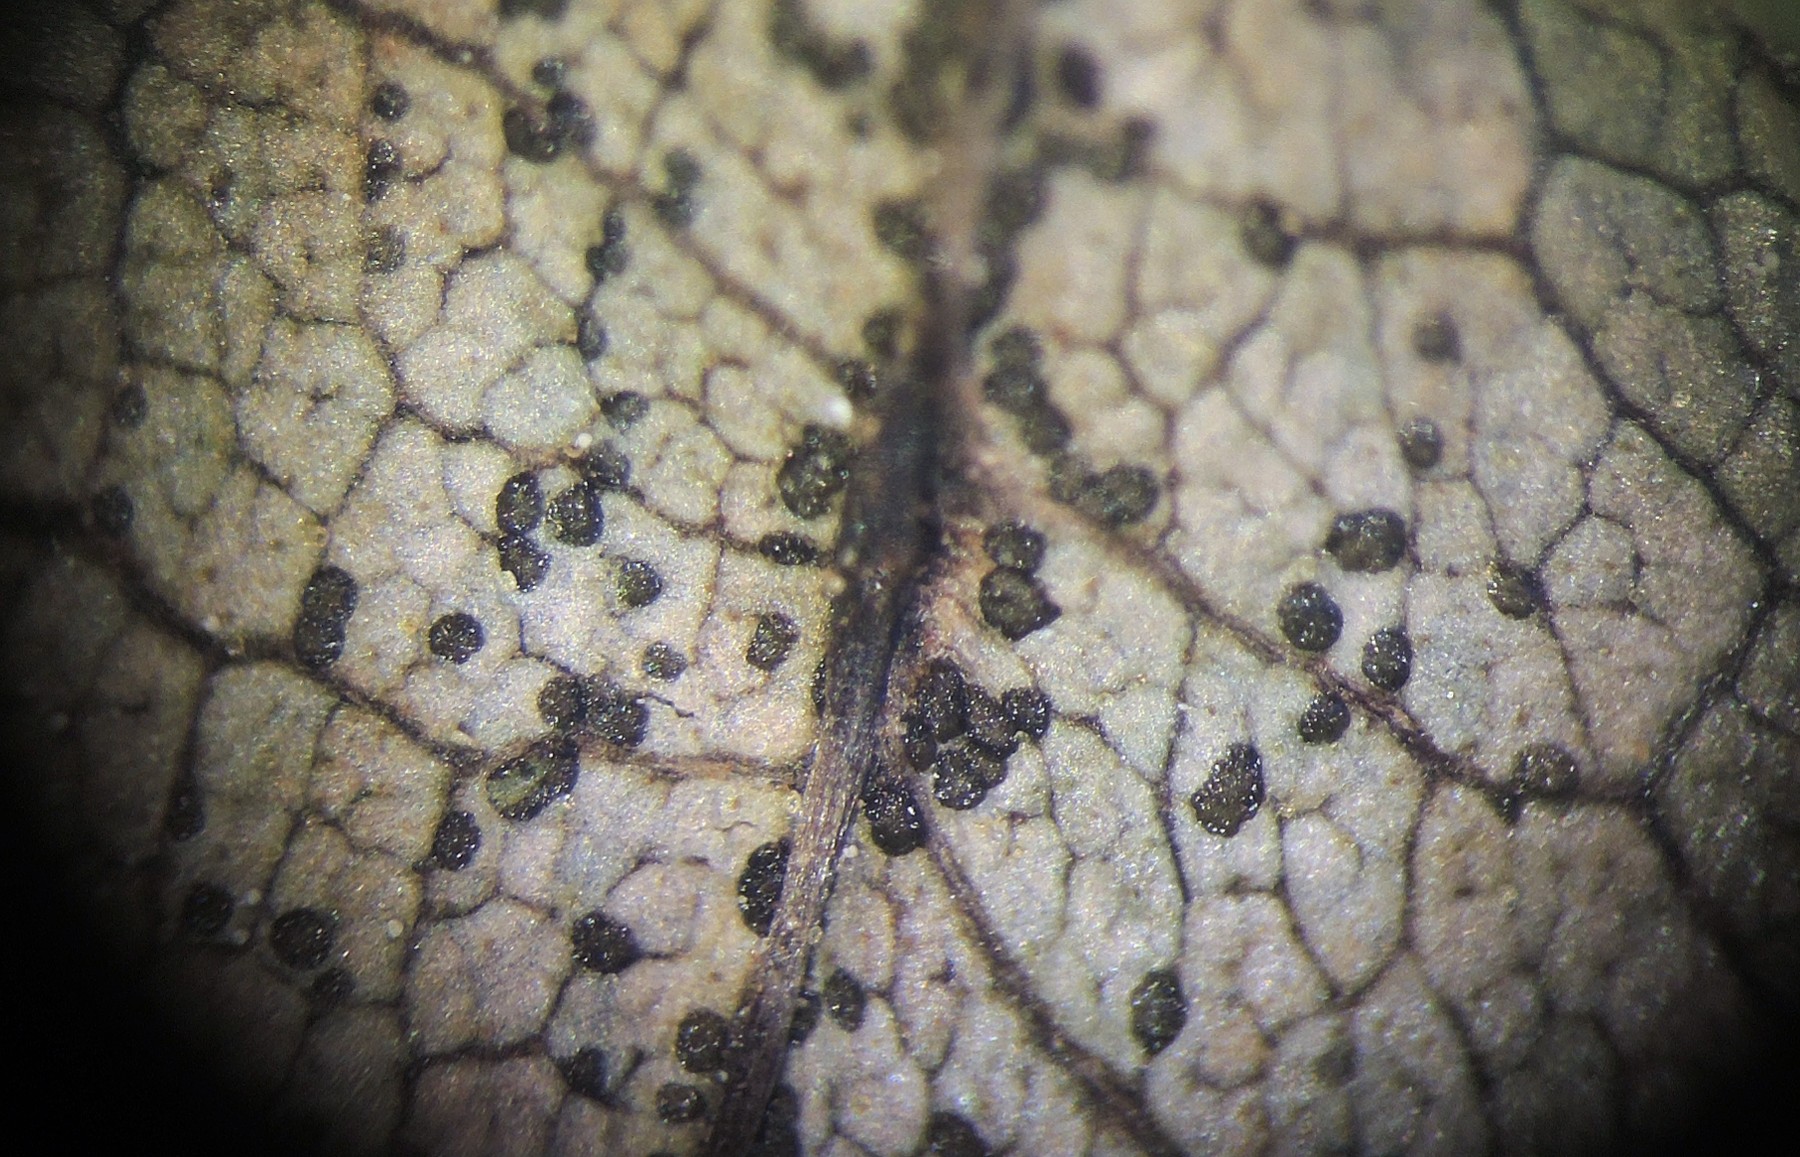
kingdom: Fungi
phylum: Ascomycota
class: Sordariomycetes
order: Diaporthales
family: Gnomoniaceae
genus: Ophiognomonia
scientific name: Ophiognomonia leptostyla
